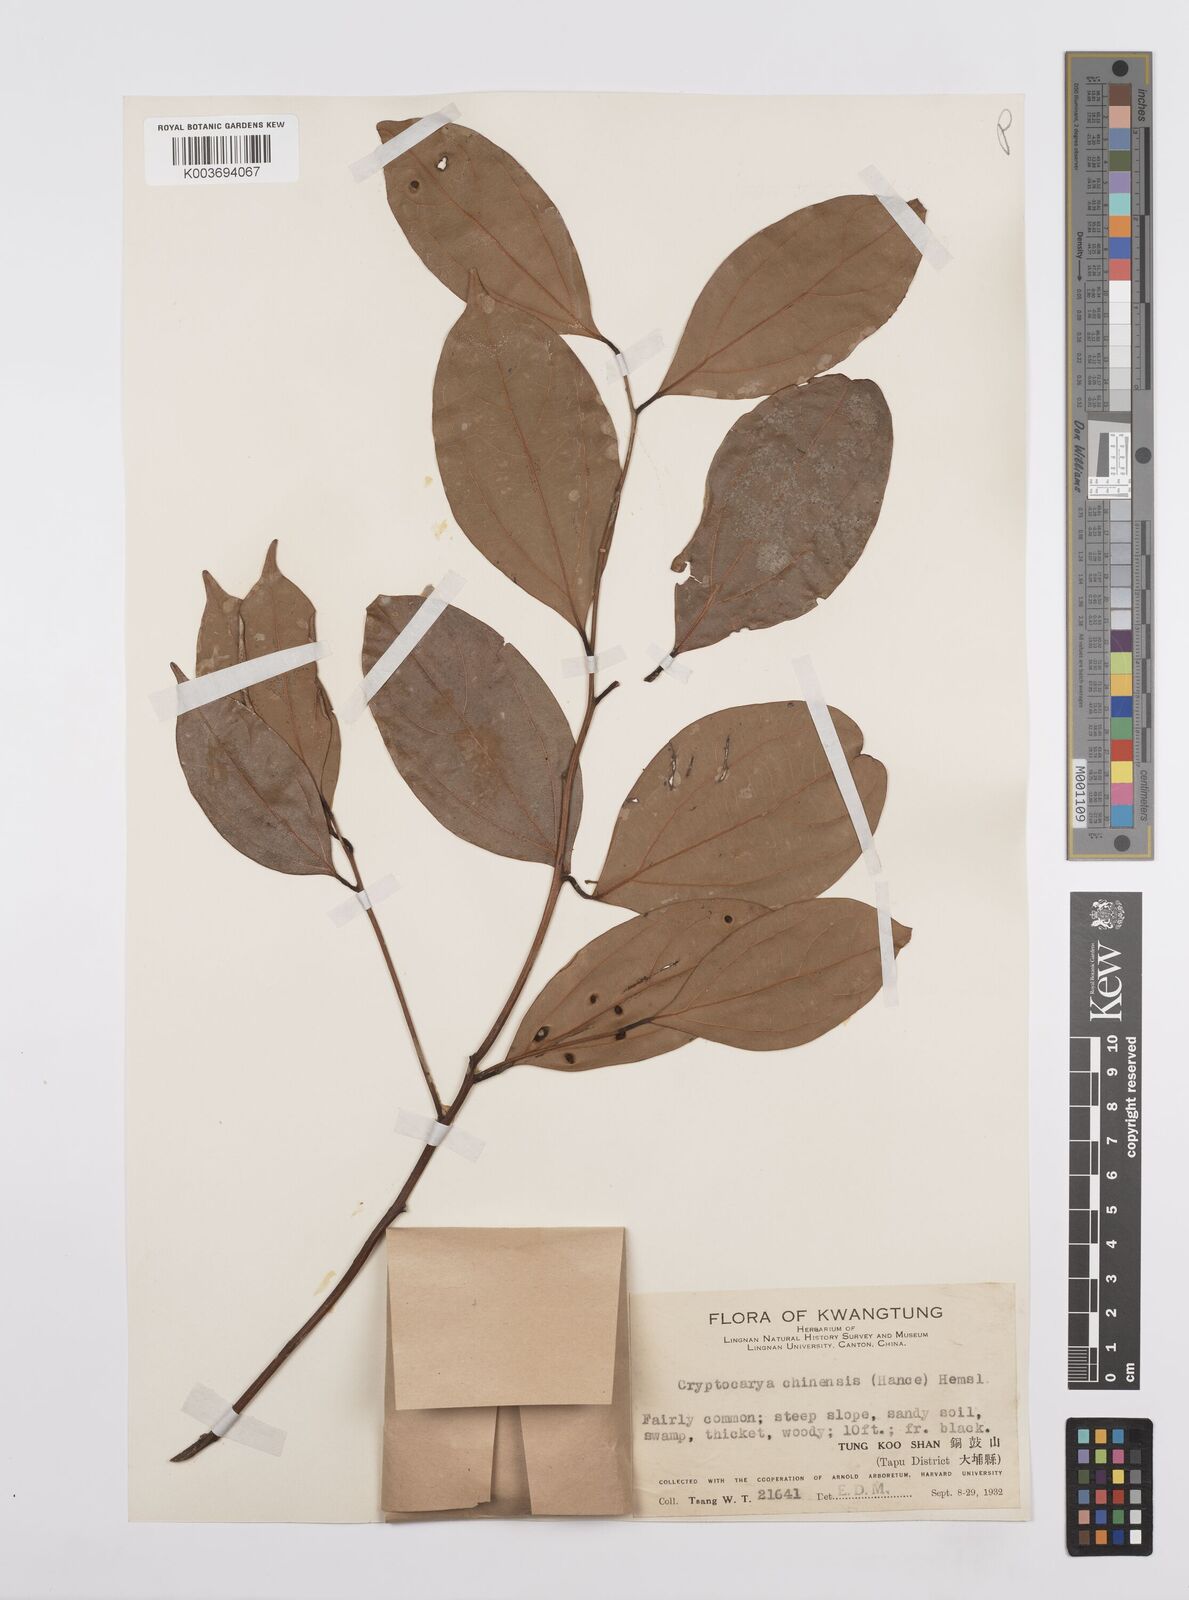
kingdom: Plantae
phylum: Tracheophyta
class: Magnoliopsida
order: Laurales
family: Lauraceae
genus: Cryptocarya
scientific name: Cryptocarya chinensis
